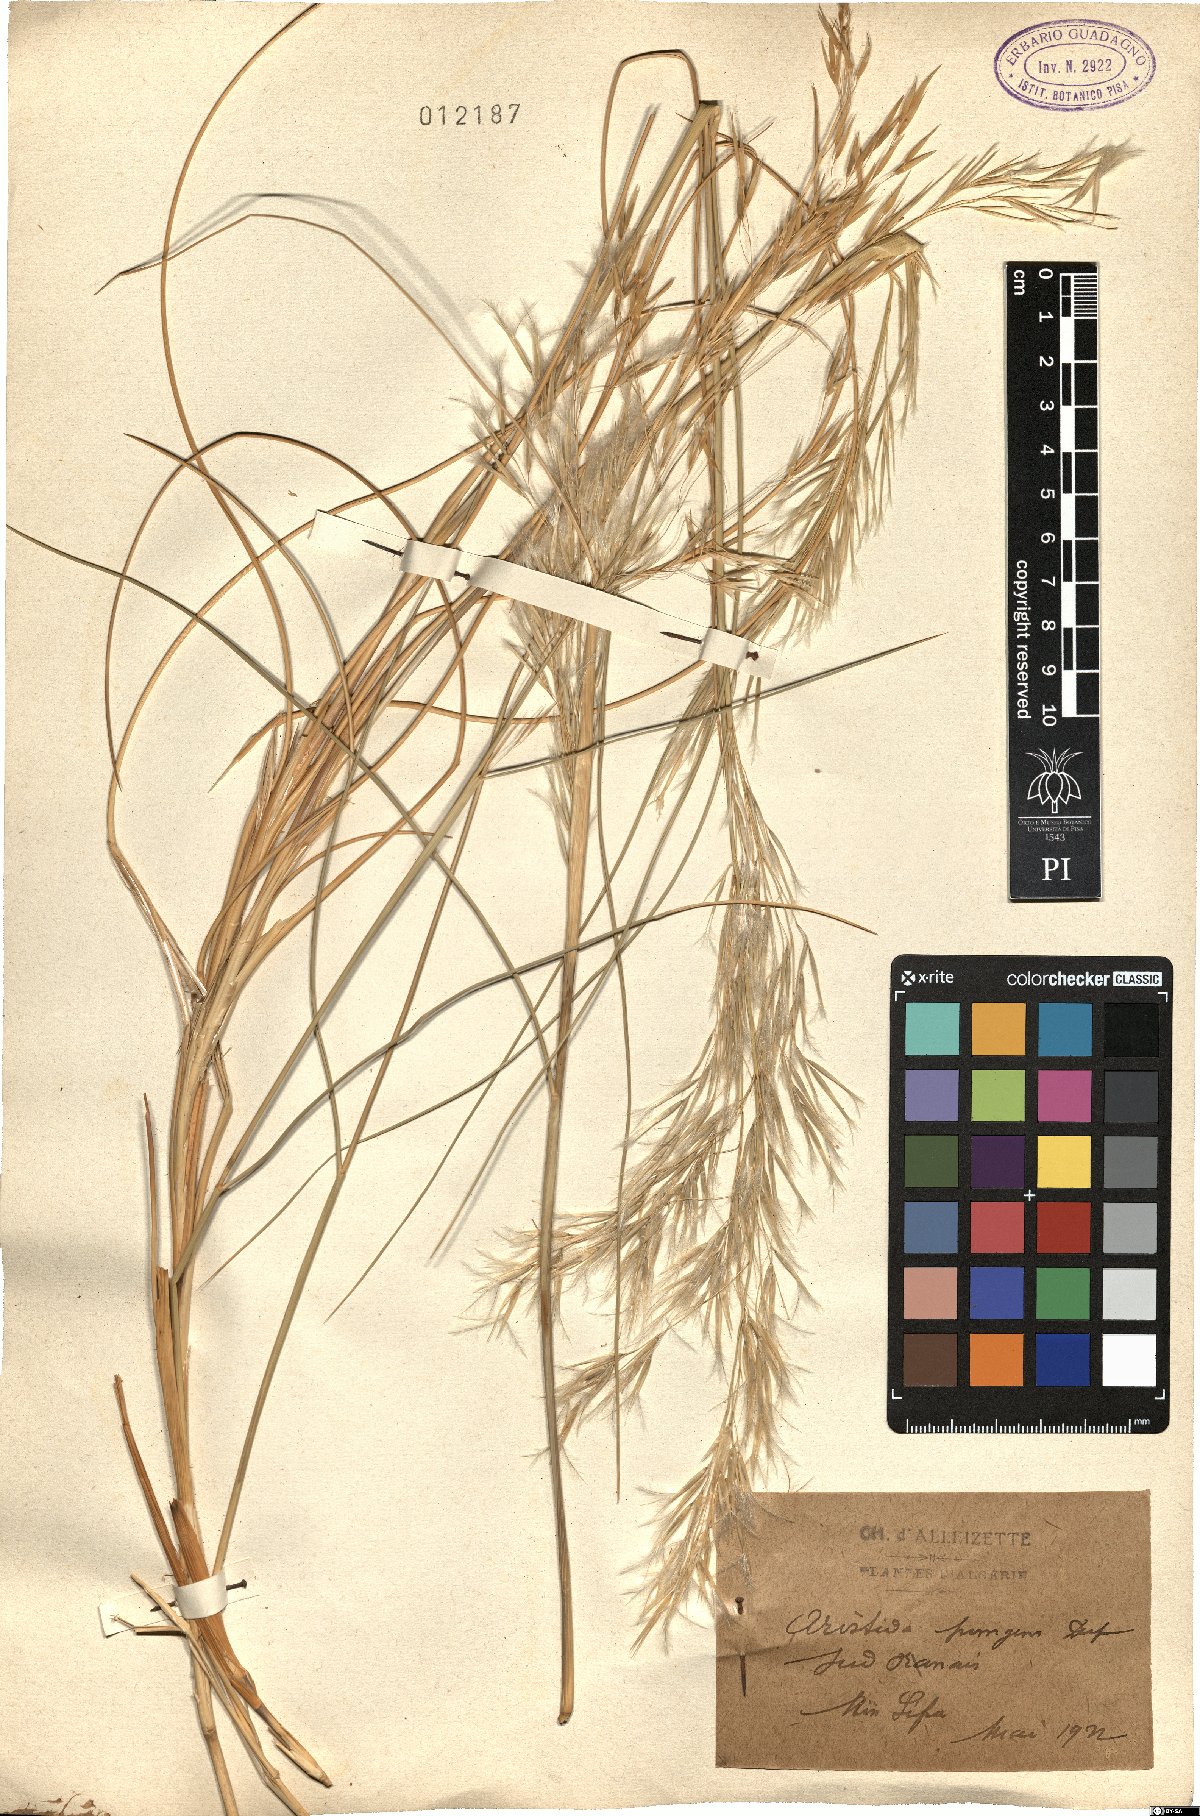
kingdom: Plantae
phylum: Tracheophyta
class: Liliopsida
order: Poales
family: Poaceae
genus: Stipagrostis
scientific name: Stipagrostis pungens
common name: Three-awn grass
